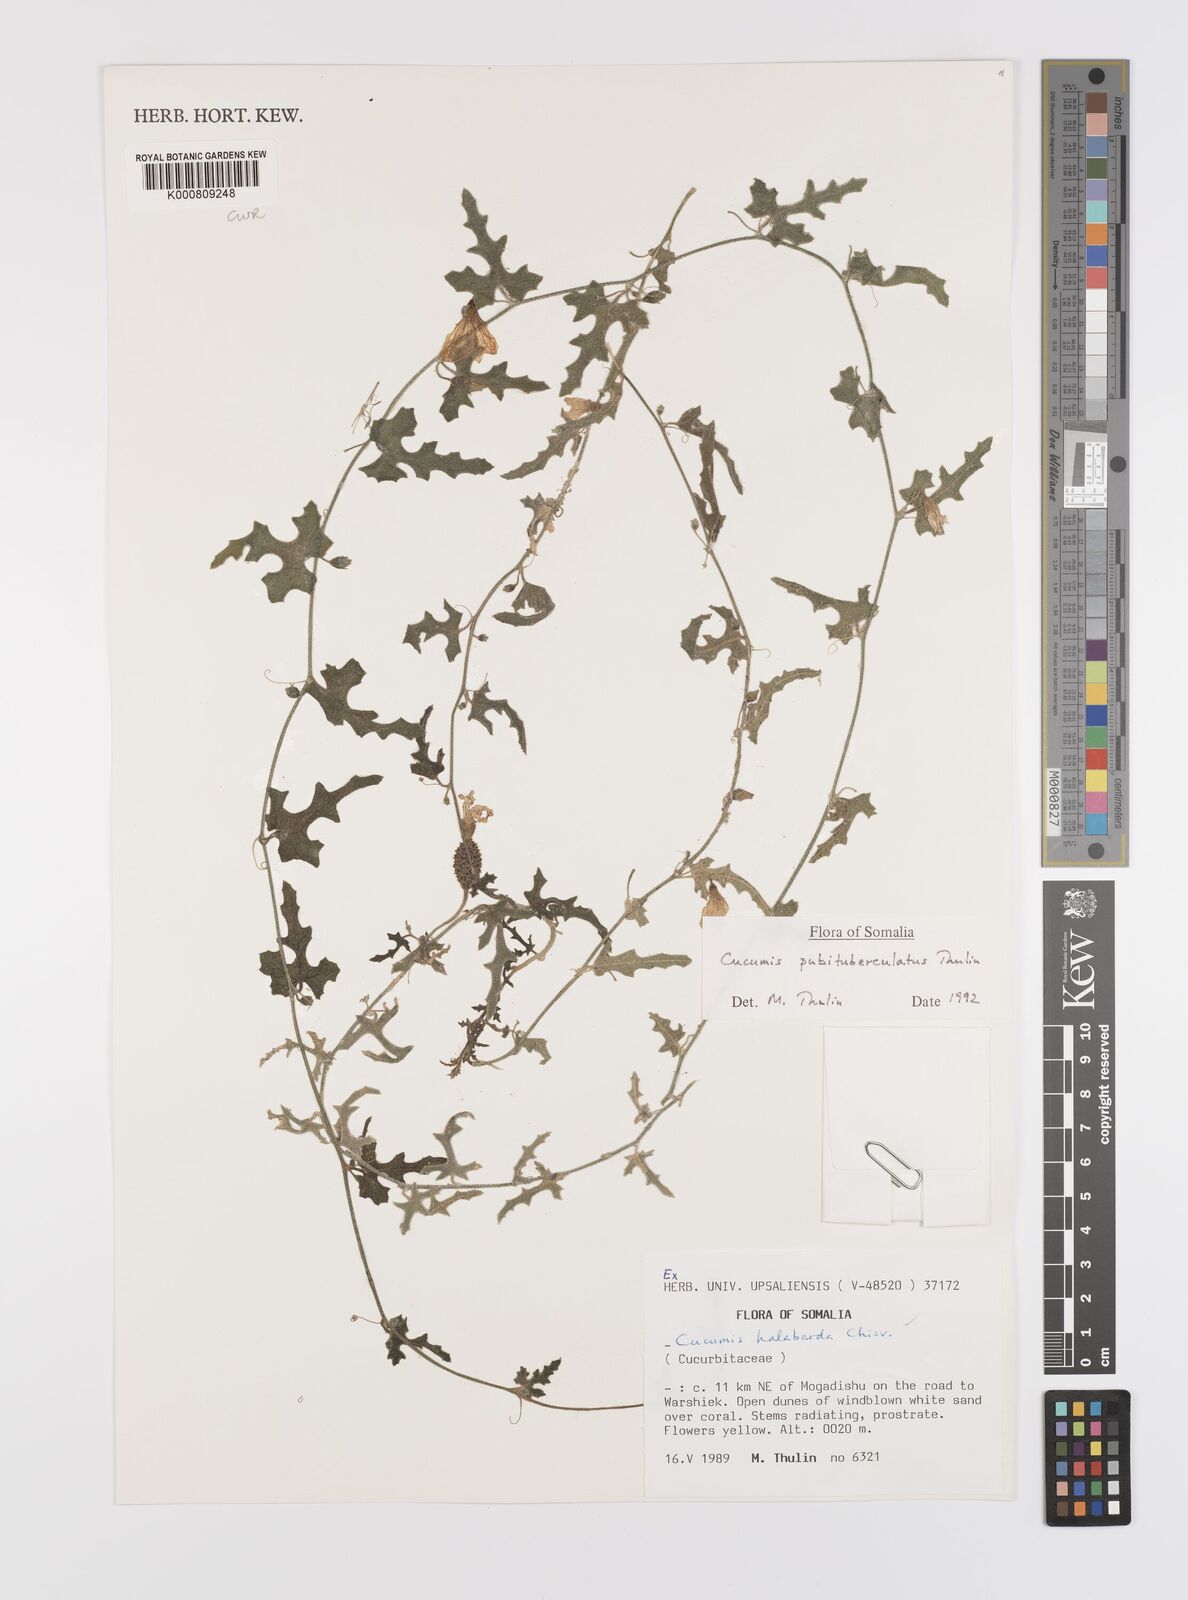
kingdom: Plantae
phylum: Tracheophyta
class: Magnoliopsida
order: Cucurbitales
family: Cucurbitaceae
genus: Cucumis
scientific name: Cucumis prophetarum
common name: Wild cucumber
